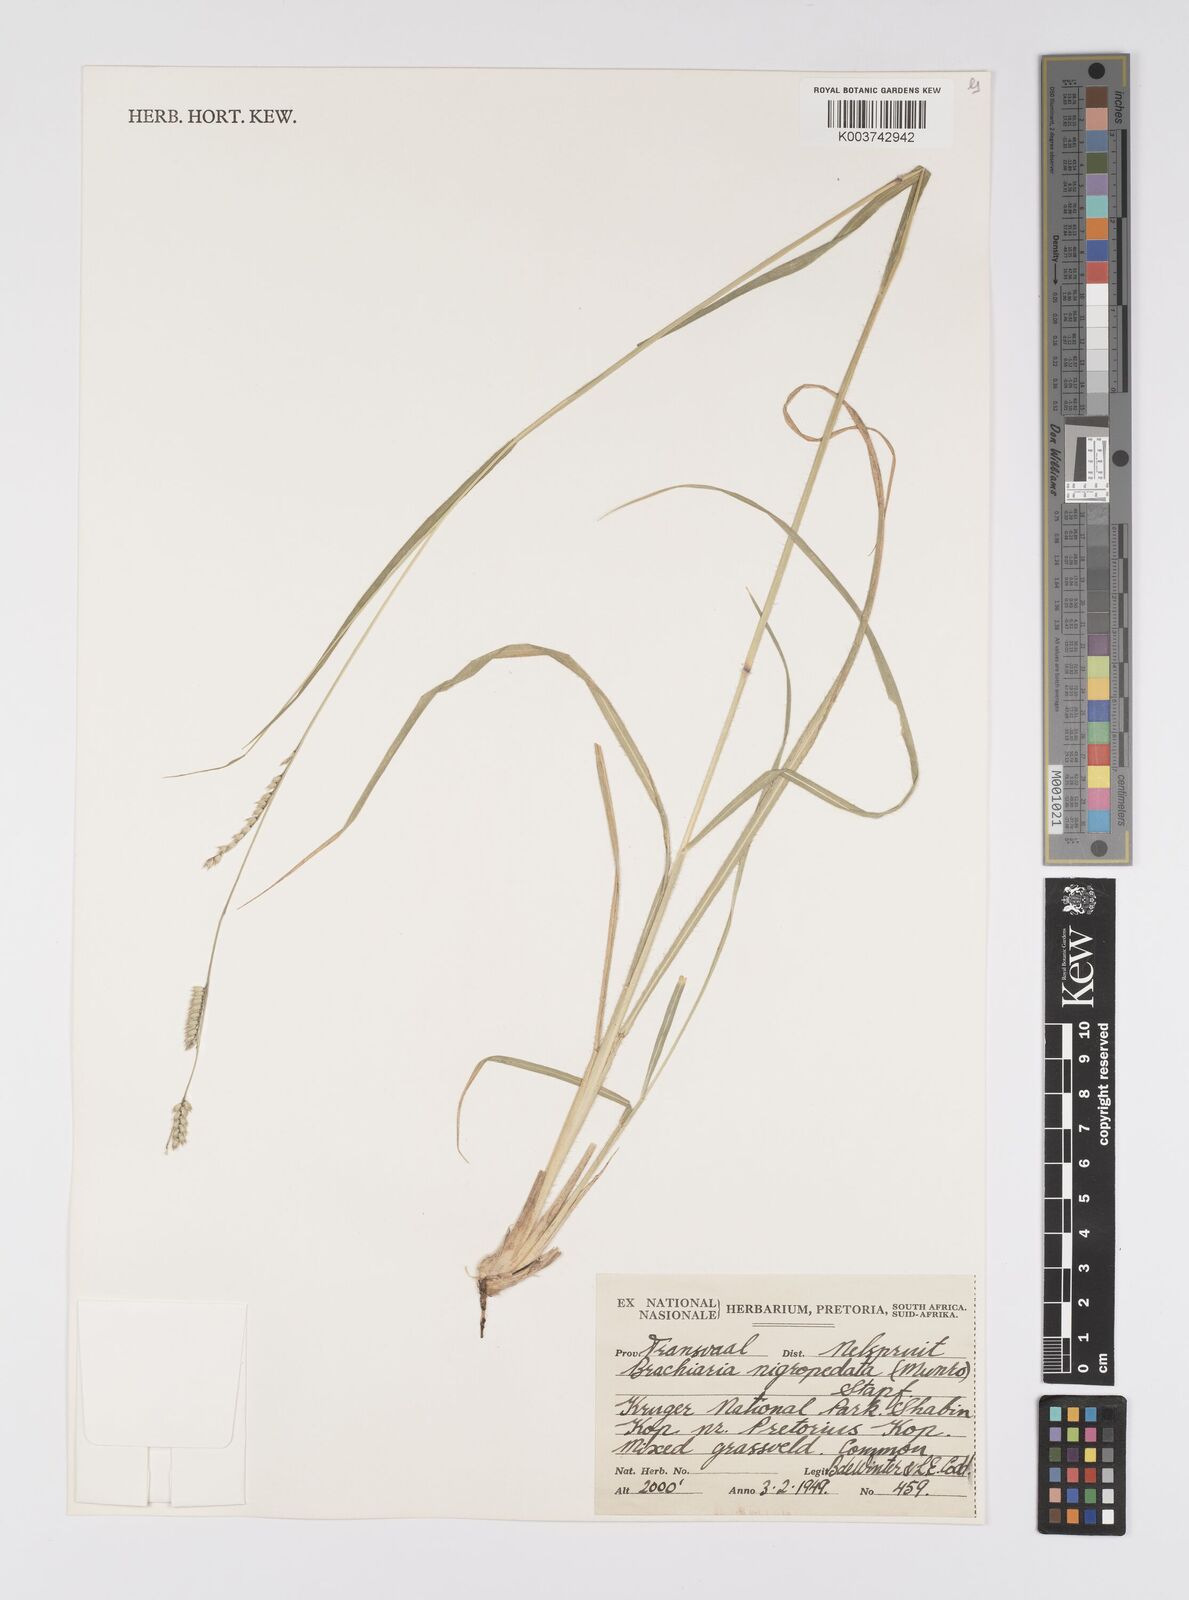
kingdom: Plantae
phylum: Tracheophyta
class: Liliopsida
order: Poales
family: Poaceae
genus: Urochloa
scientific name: Urochloa nigropedata
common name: Spotted signal grass
